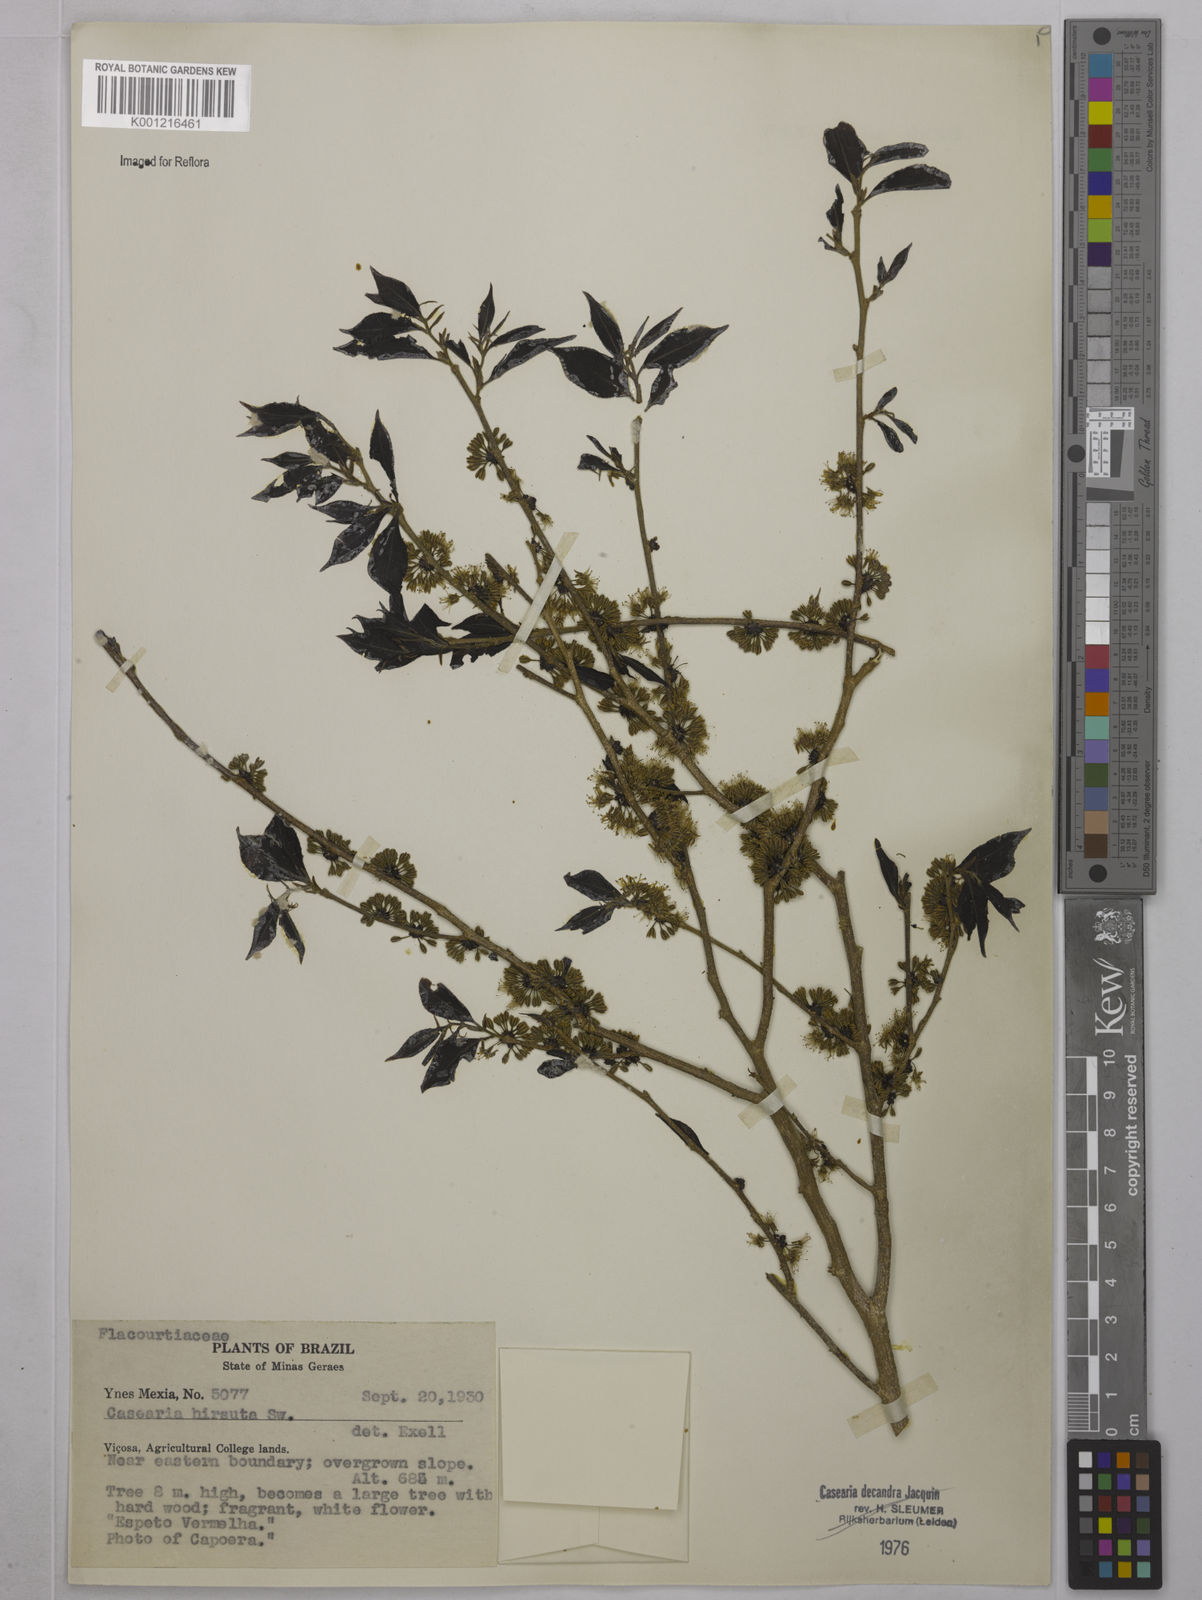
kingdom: Plantae
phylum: Tracheophyta
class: Magnoliopsida
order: Malpighiales
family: Salicaceae
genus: Casearia
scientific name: Casearia hirsuta
